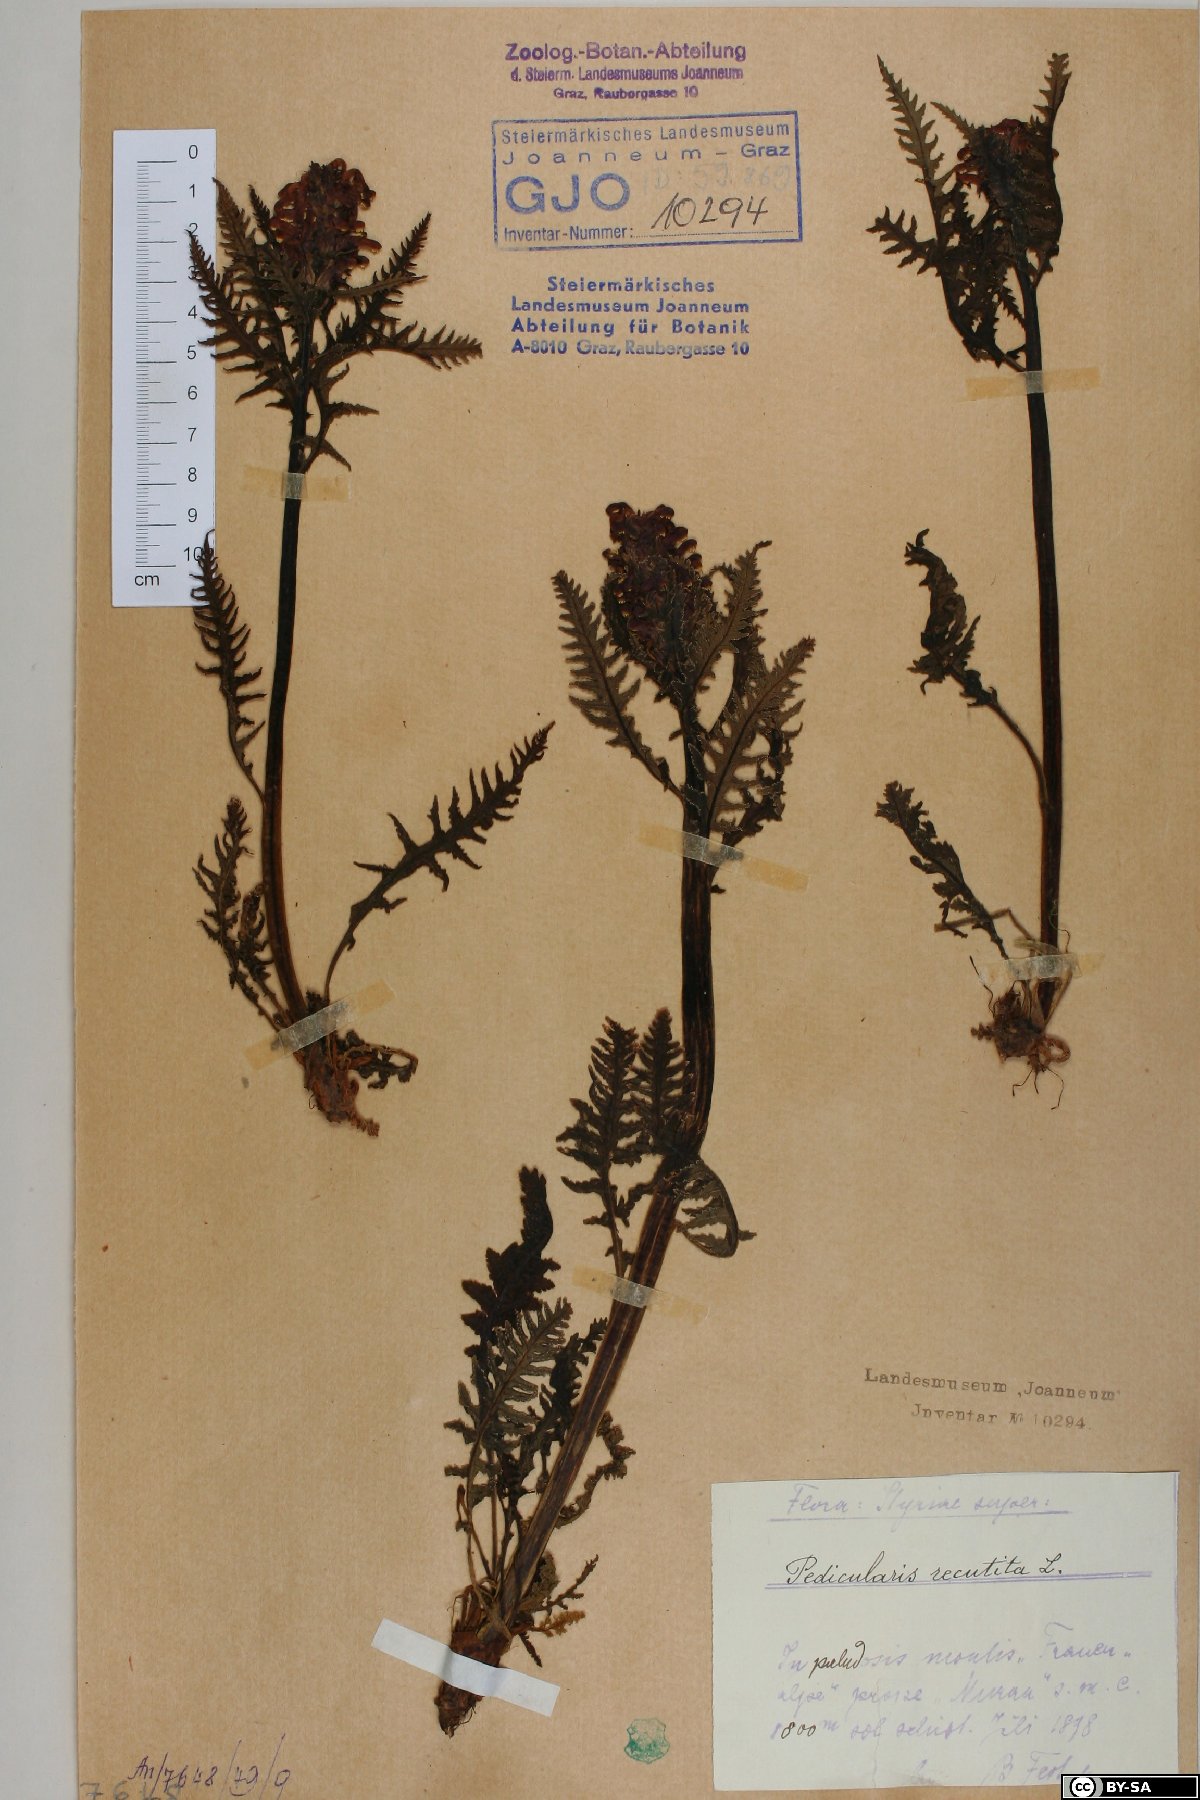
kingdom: Plantae
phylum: Tracheophyta
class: Magnoliopsida
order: Lamiales
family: Orobanchaceae
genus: Pedicularis
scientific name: Pedicularis recutita
